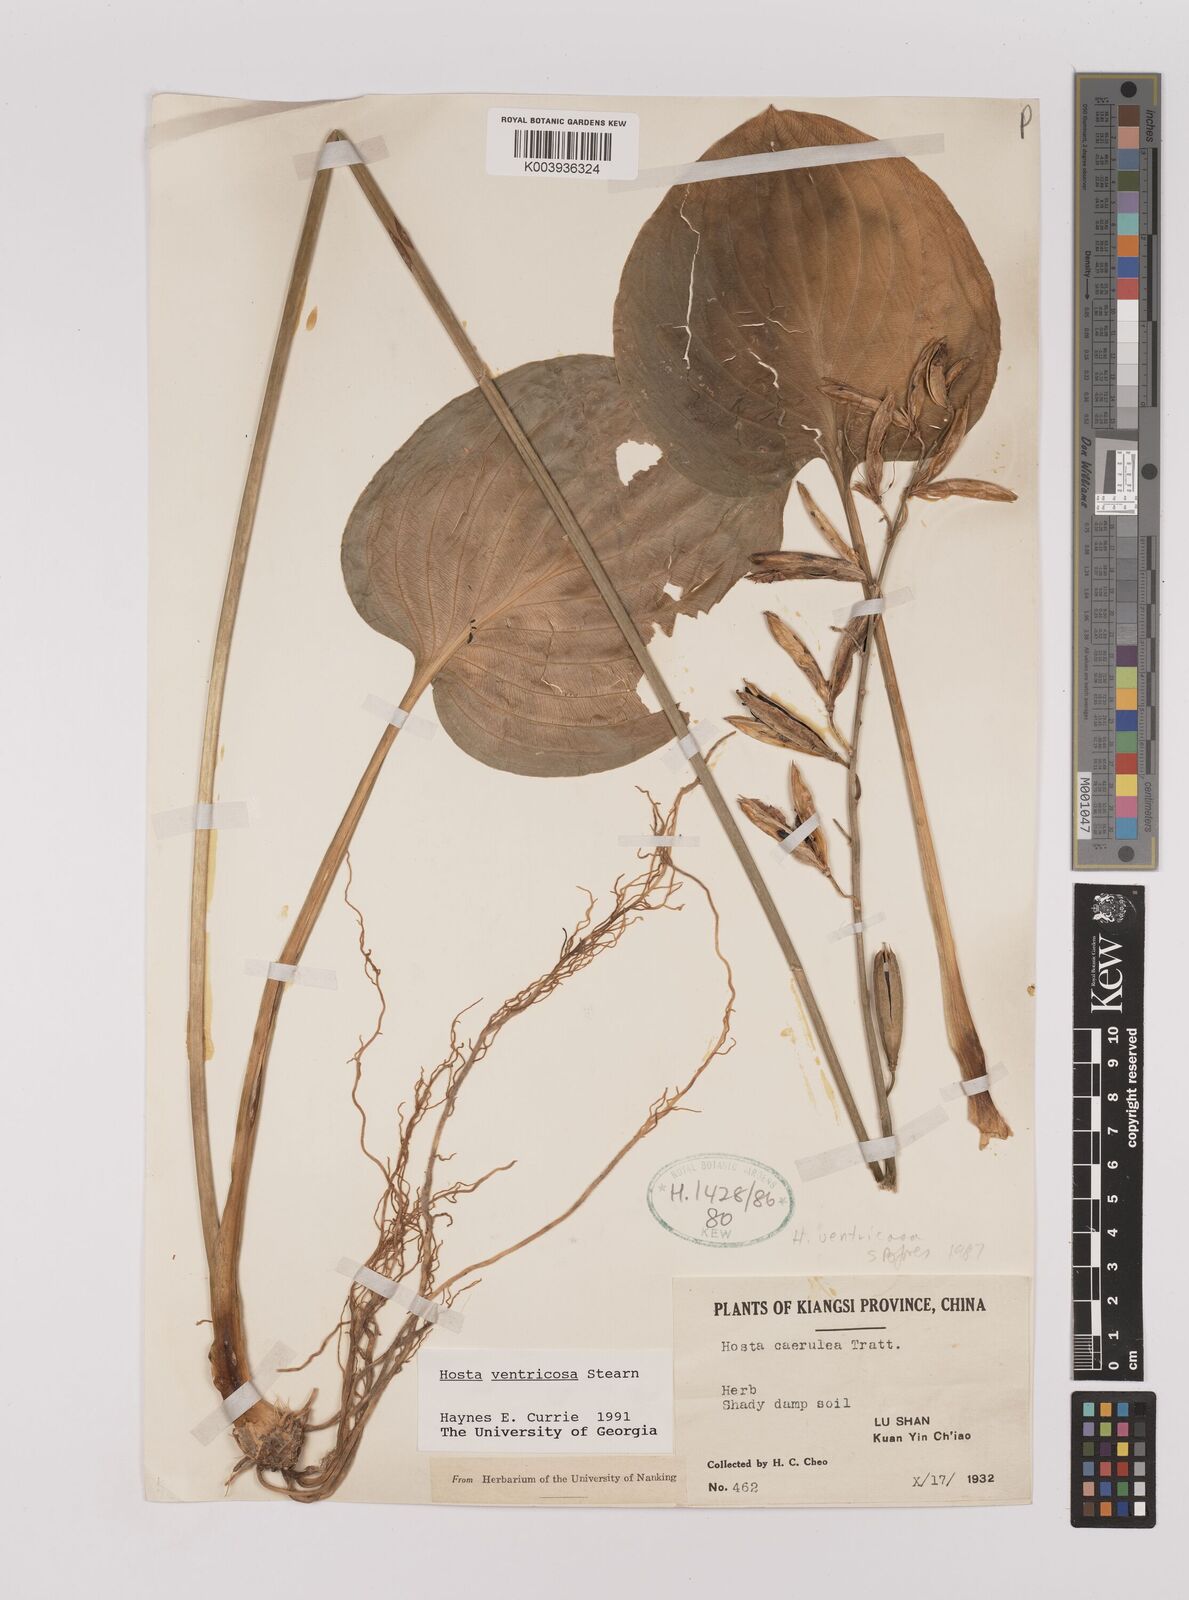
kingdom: Plantae
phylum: Tracheophyta
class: Liliopsida
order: Asparagales
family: Asparagaceae
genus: Hosta
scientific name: Hosta ventricosa
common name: Blue plantain-lily
